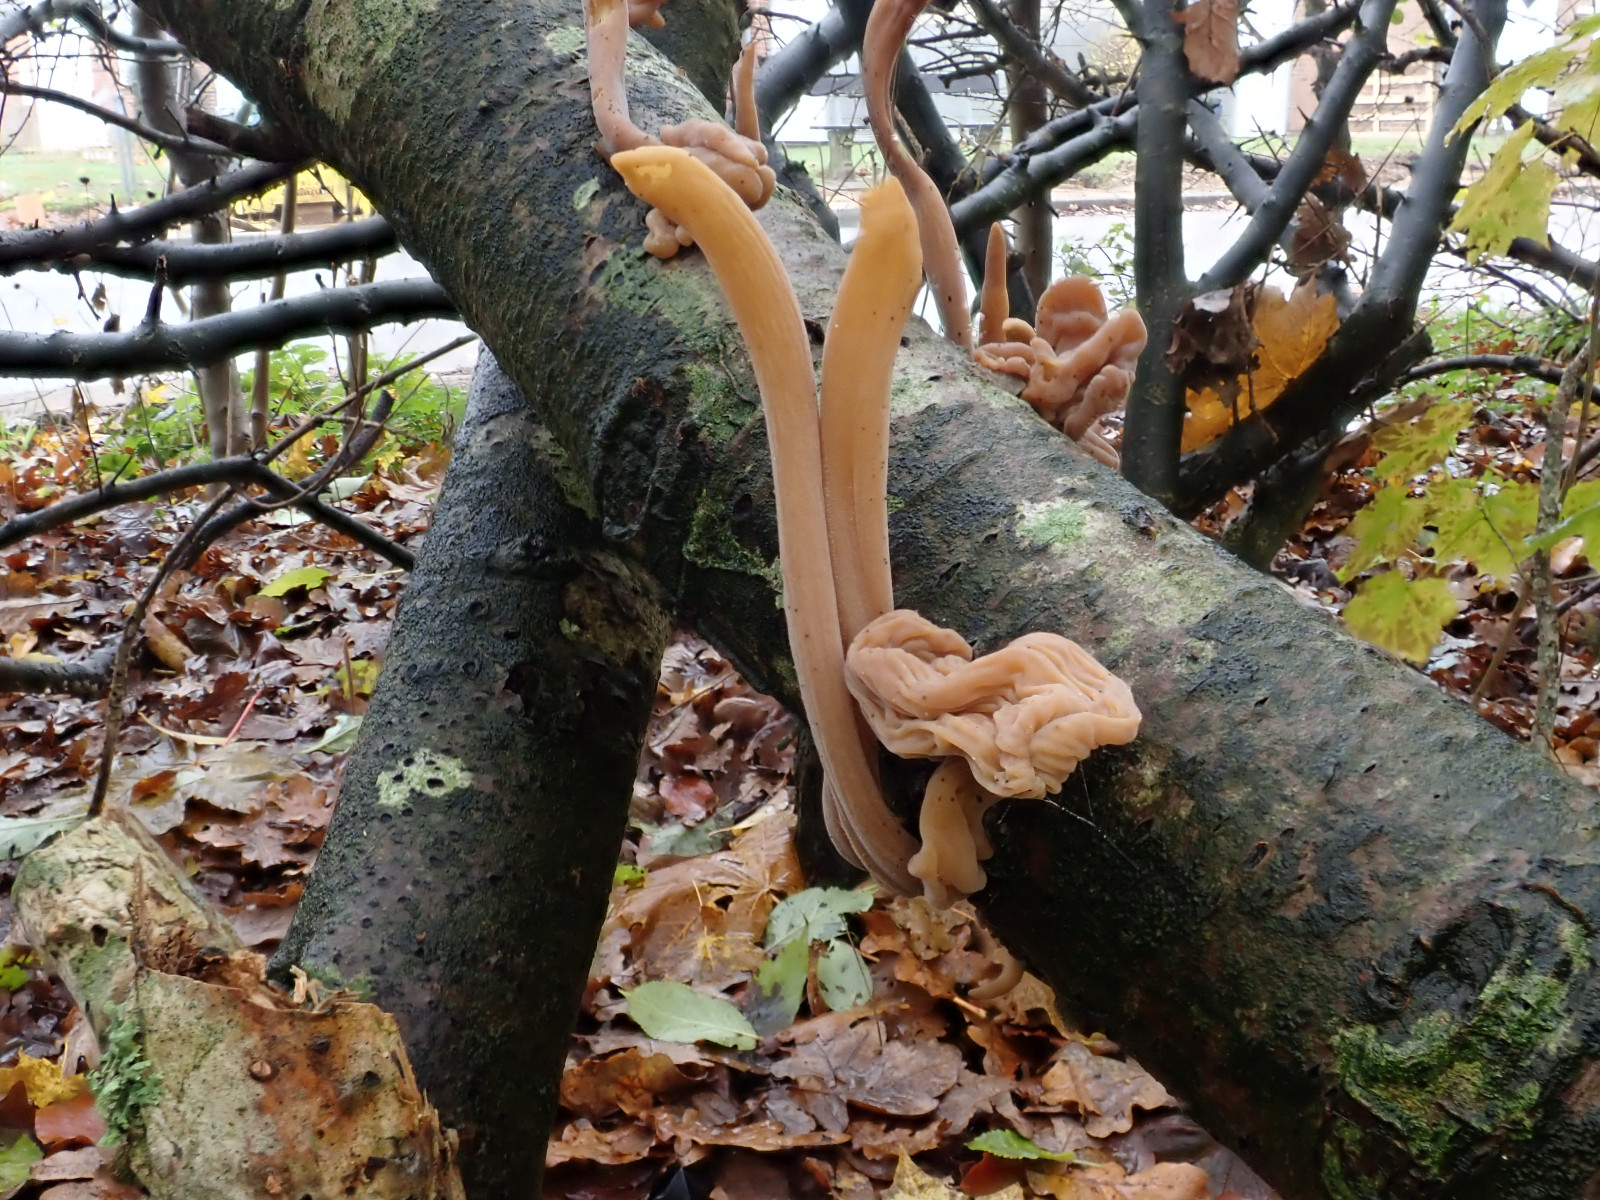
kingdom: Fungi
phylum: Basidiomycota
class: Agaricomycetes
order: Agaricales
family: Typhulaceae
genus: Typhula
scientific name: Typhula contorta
